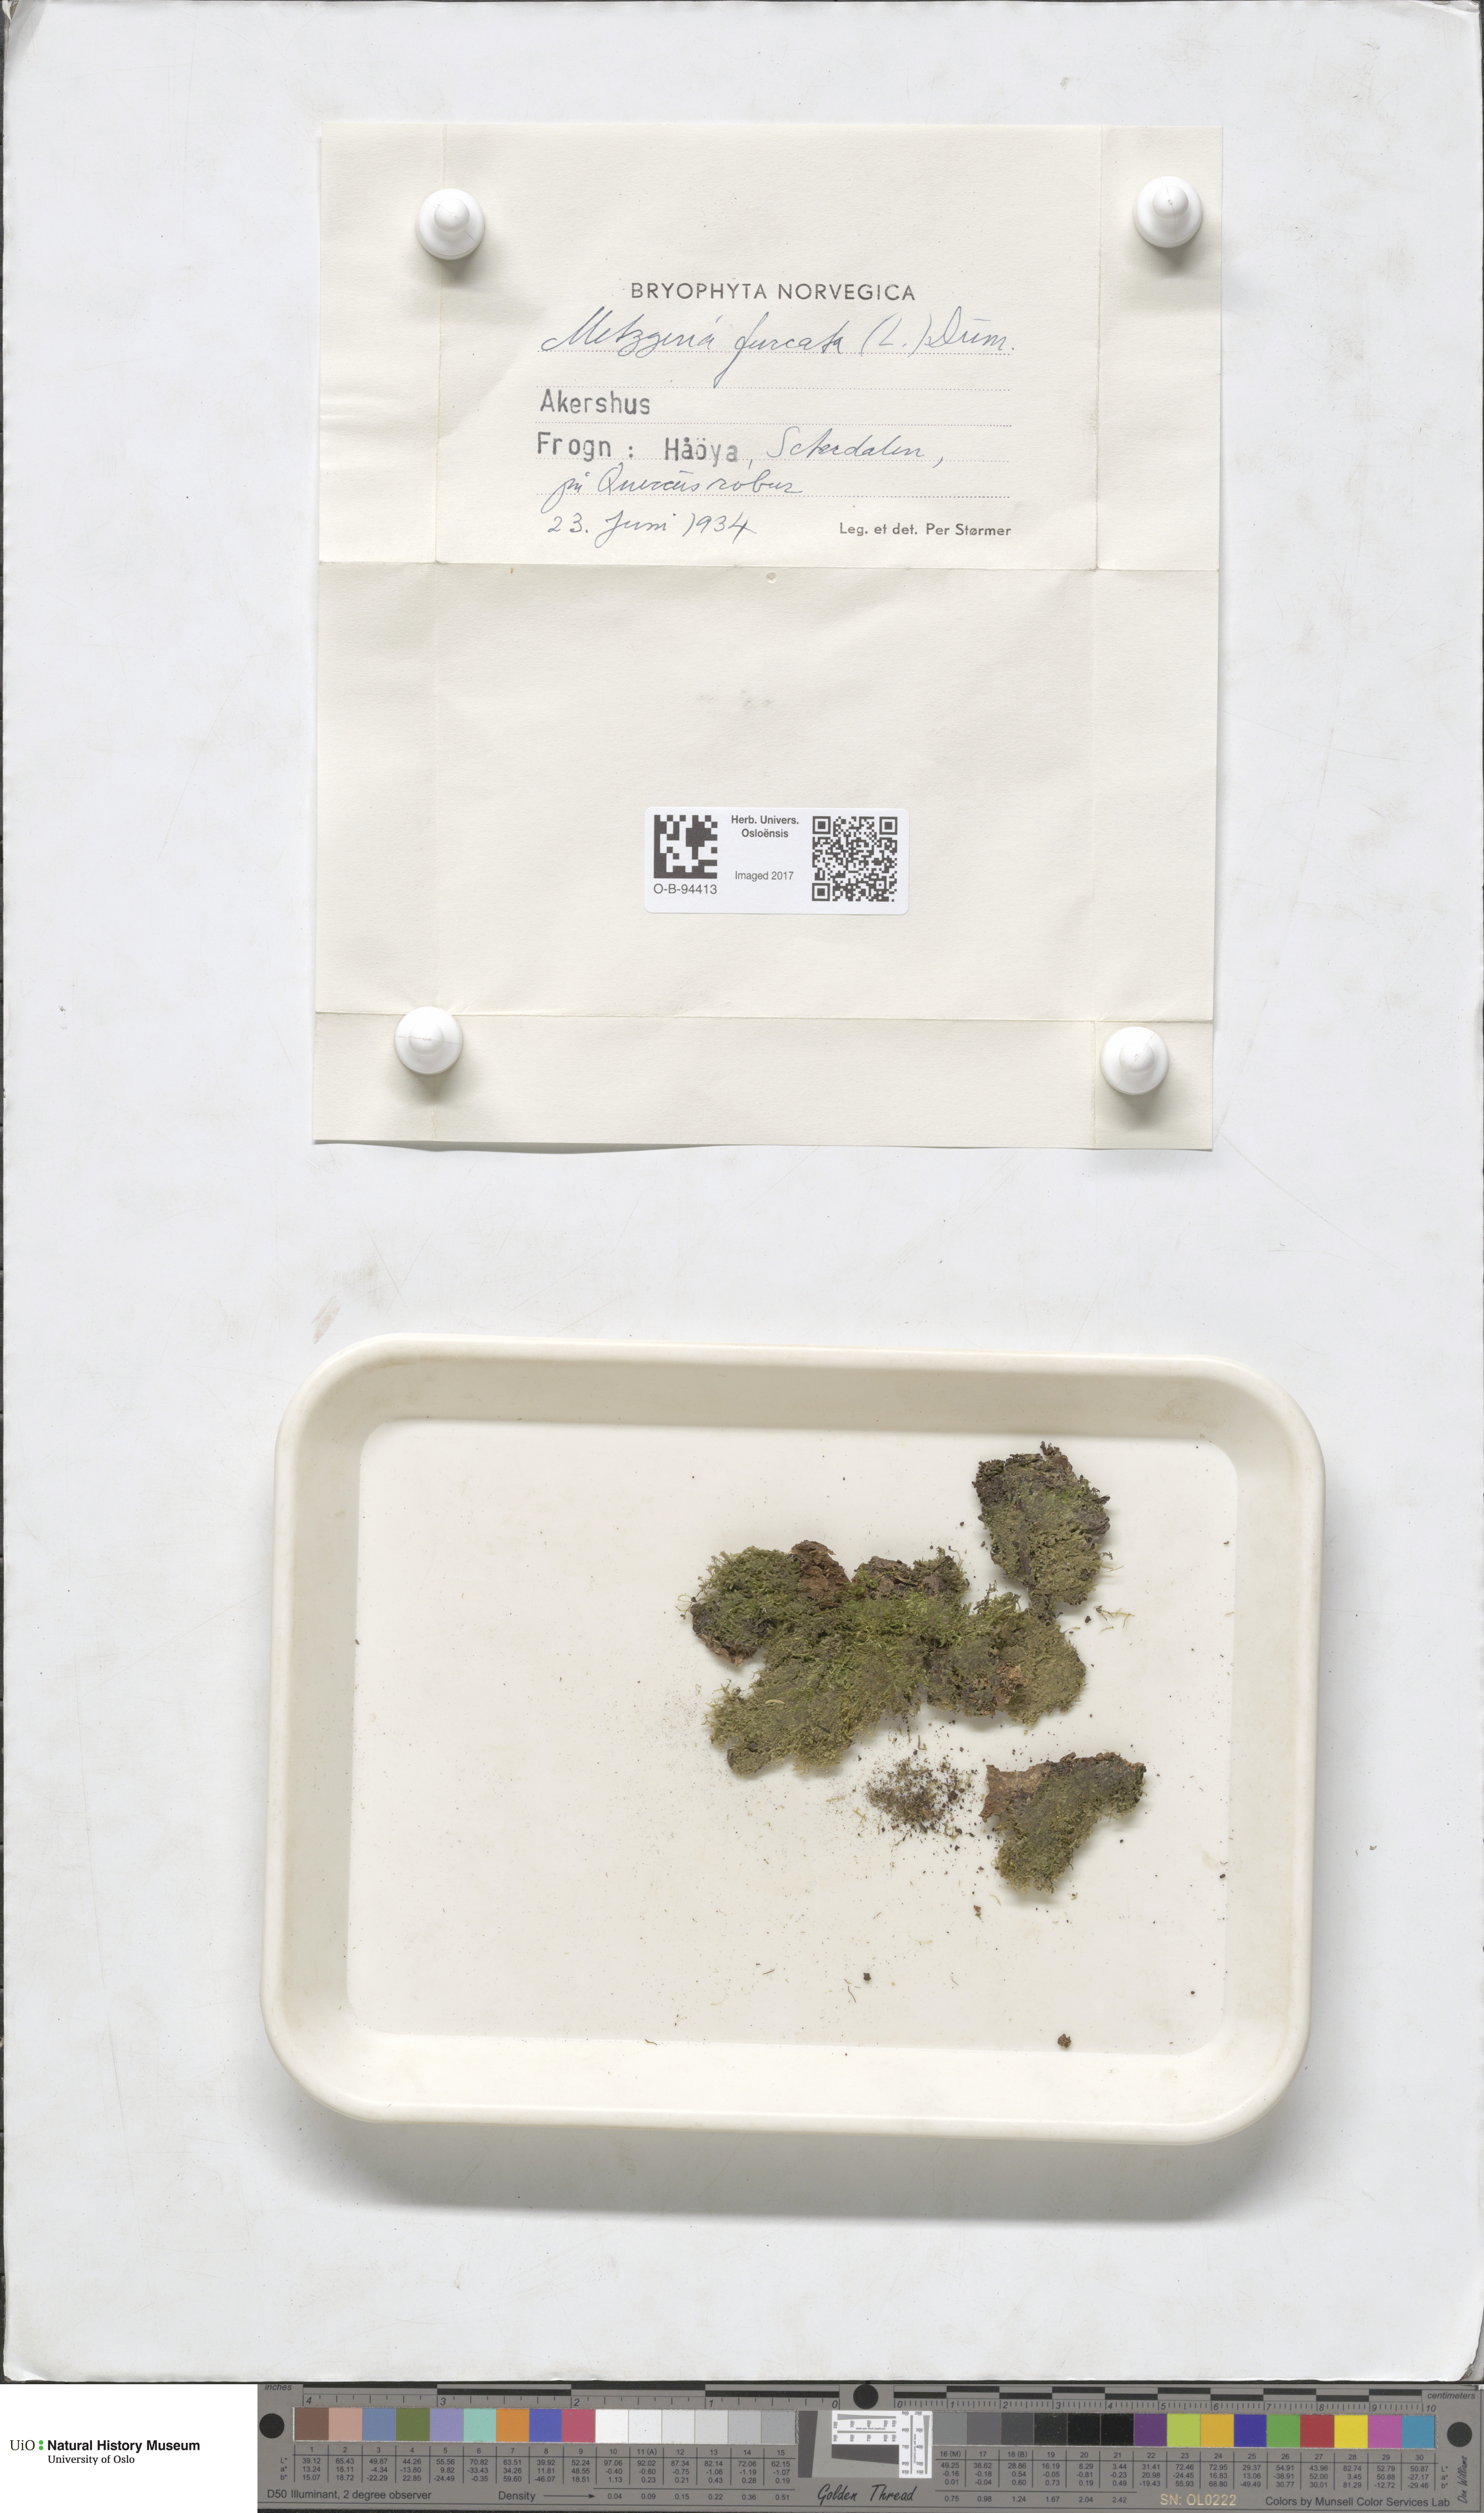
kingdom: Plantae
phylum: Marchantiophyta
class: Jungermanniopsida
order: Metzgeriales
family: Metzgeriaceae
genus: Metzgeria
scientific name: Metzgeria furcata
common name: Forked veilwort
